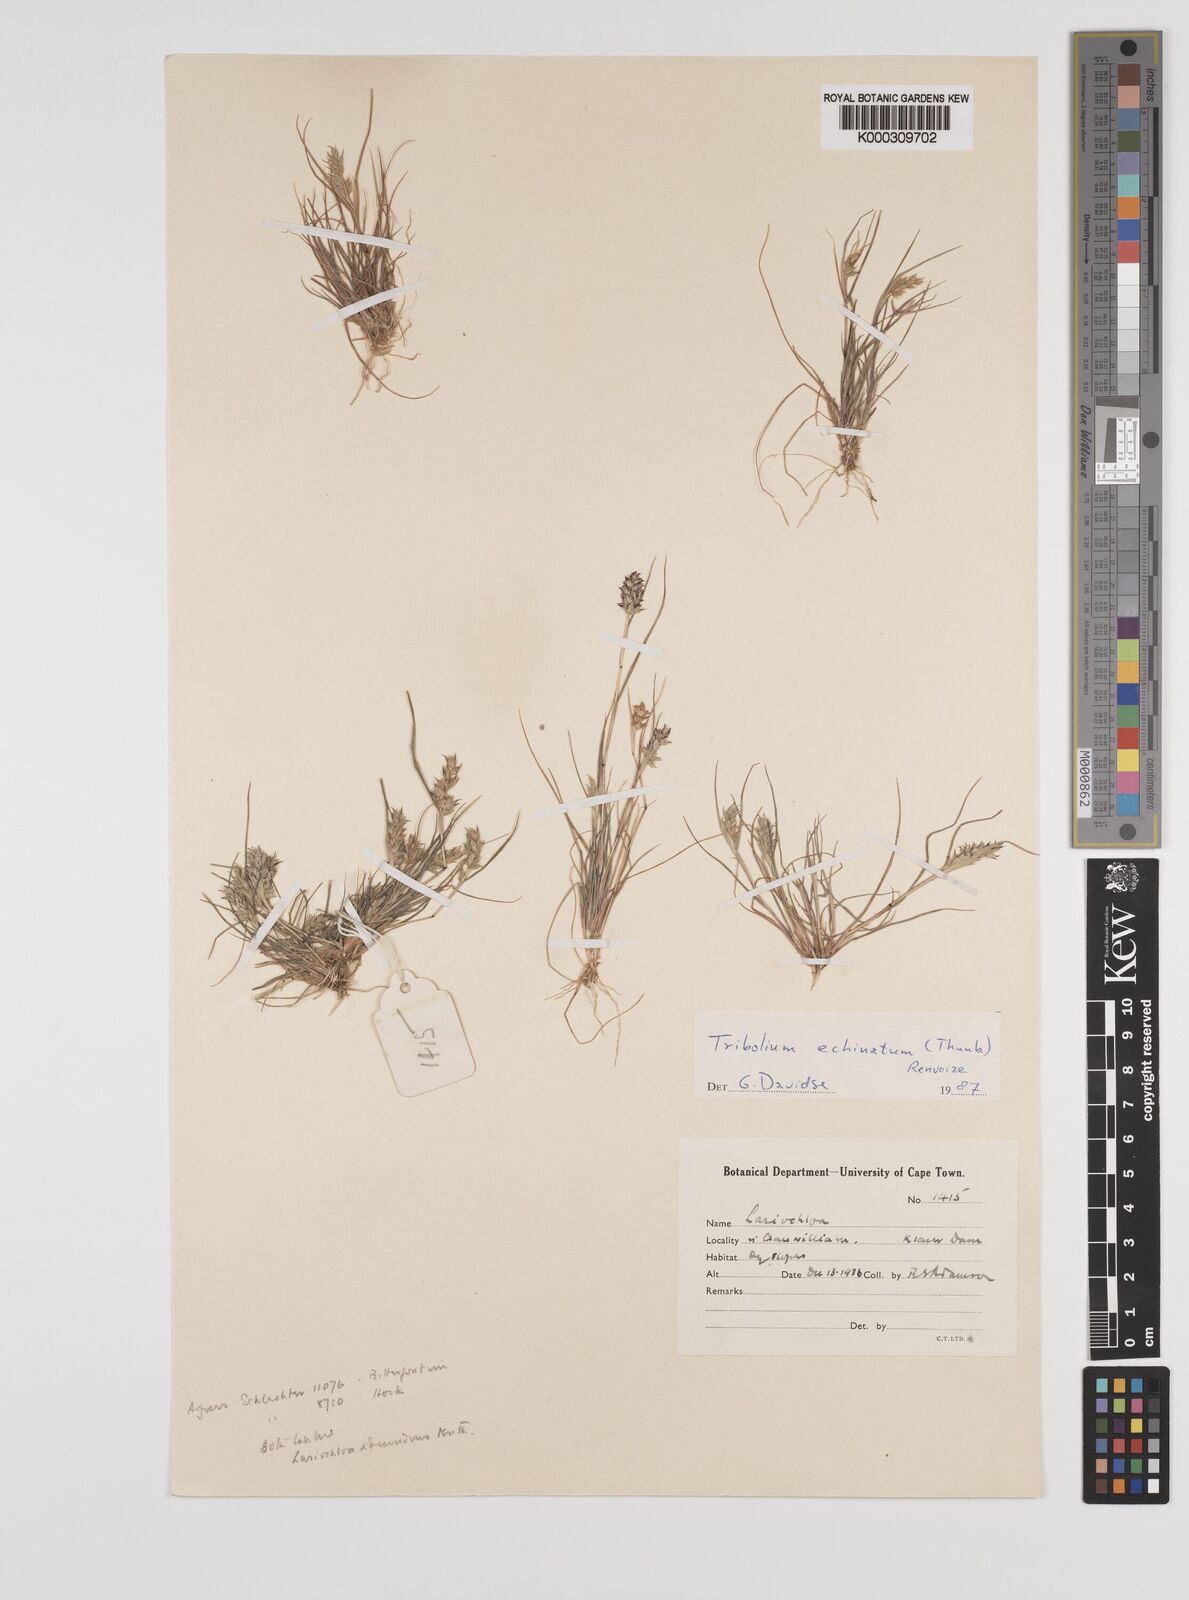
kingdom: Plantae
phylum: Tracheophyta
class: Liliopsida
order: Poales
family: Poaceae
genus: Tribolium
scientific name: Tribolium echinatum
